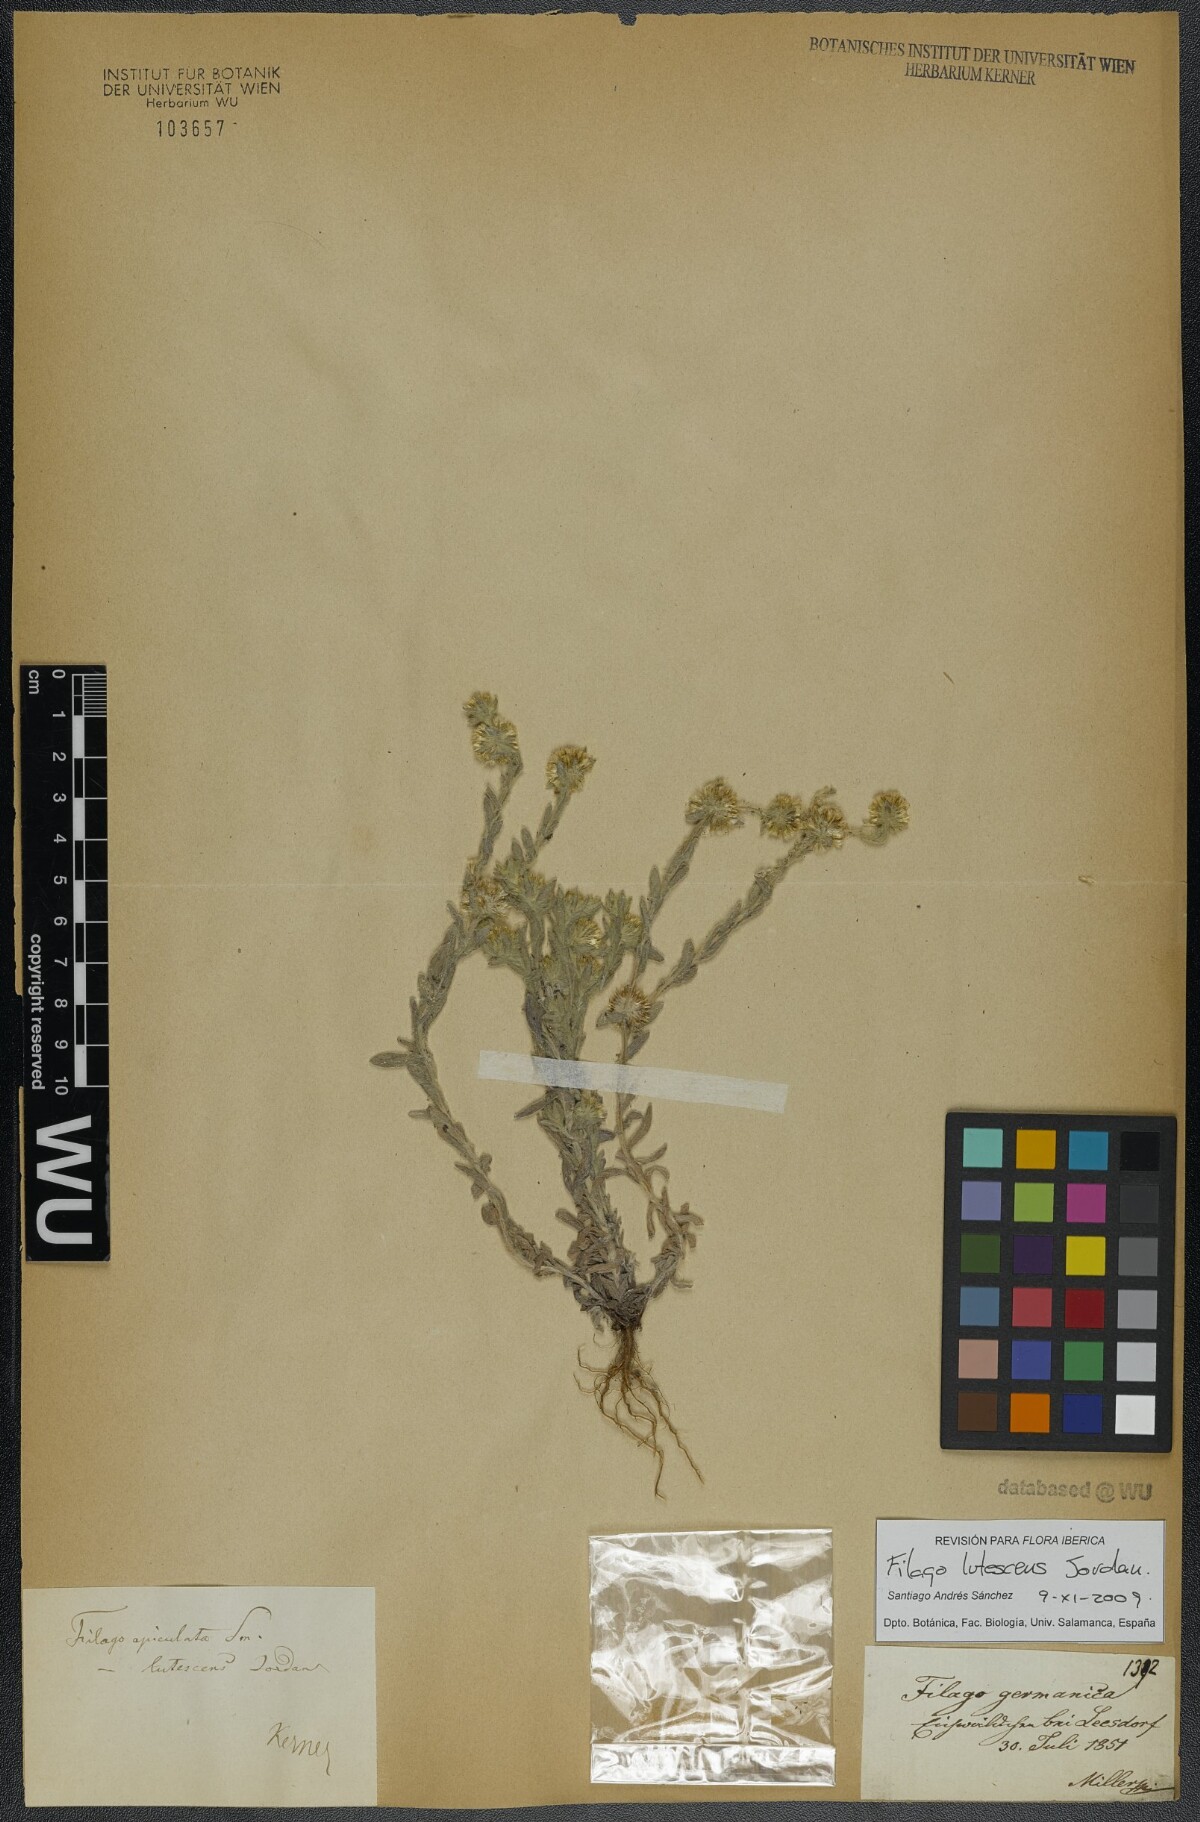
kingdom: Plantae
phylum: Tracheophyta
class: Magnoliopsida
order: Asterales
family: Asteraceae
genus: Filago
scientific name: Filago lutescens
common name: Red-tipped cudweed
